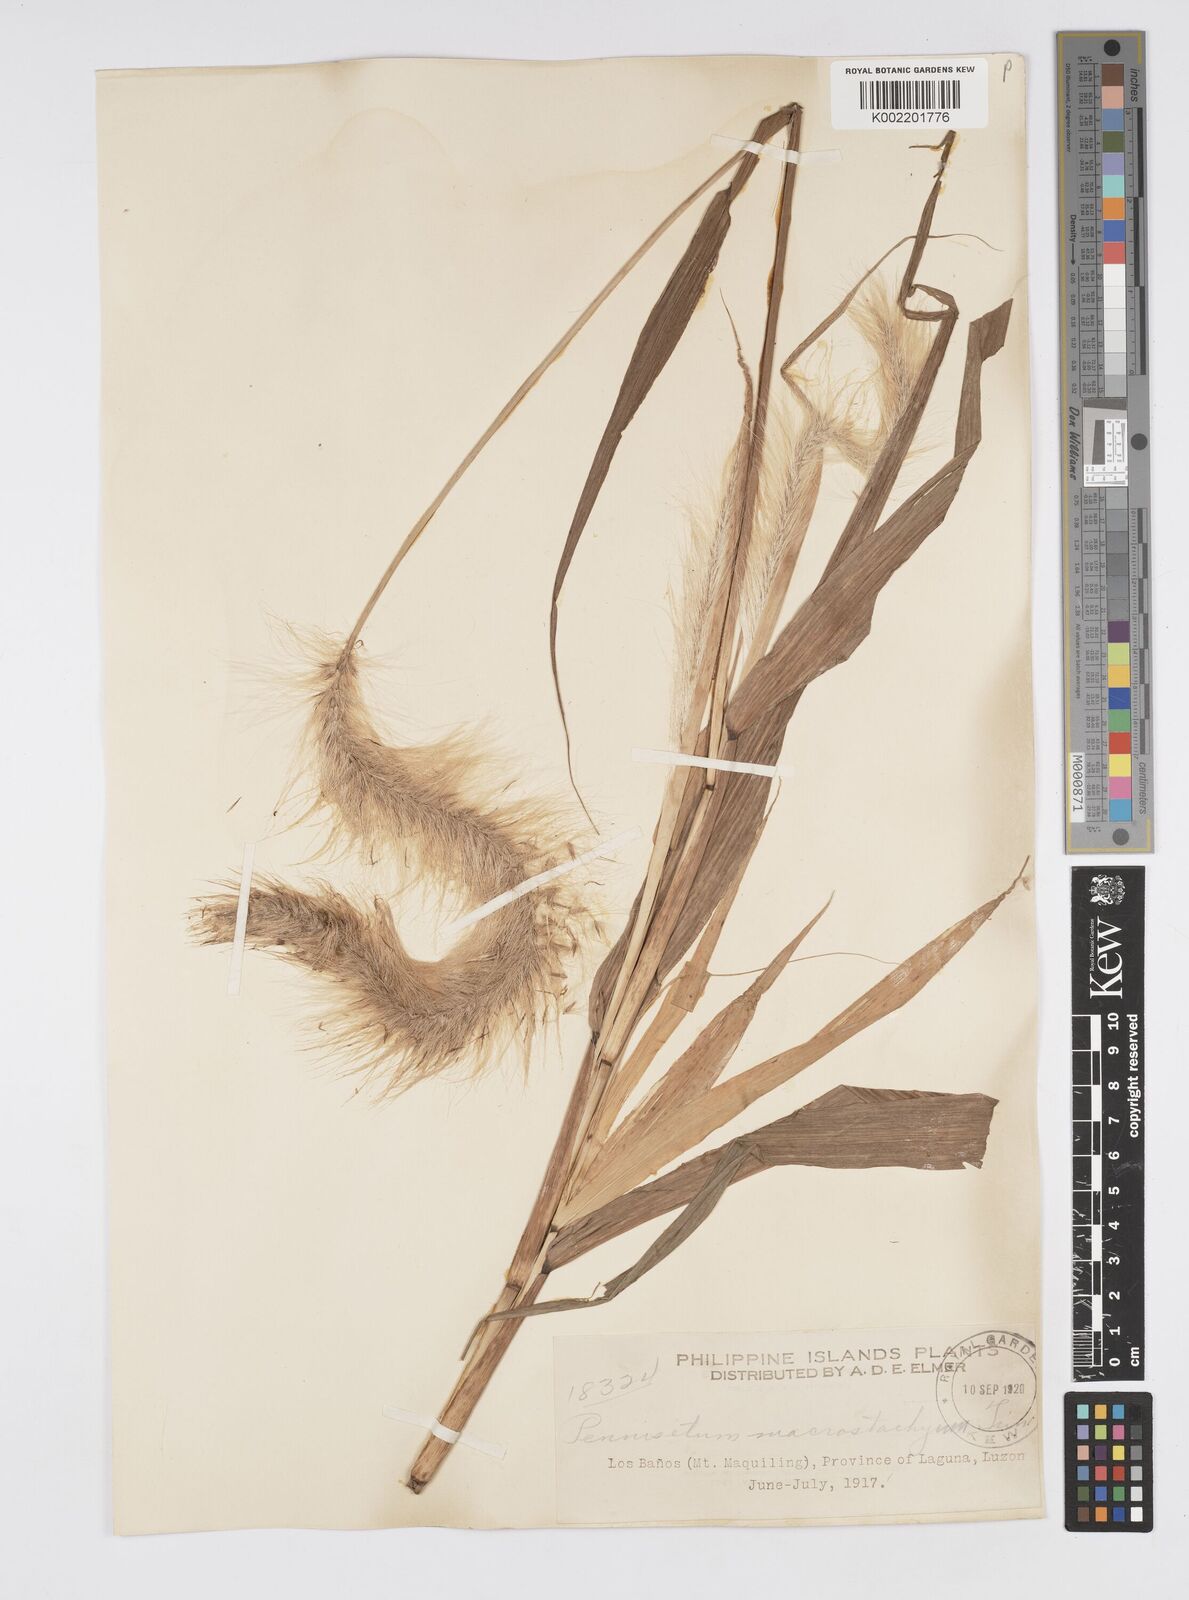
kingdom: Plantae
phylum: Tracheophyta
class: Liliopsida
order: Poales
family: Poaceae
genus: Cenchrus
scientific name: Cenchrus purpureus
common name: Elephant grass
